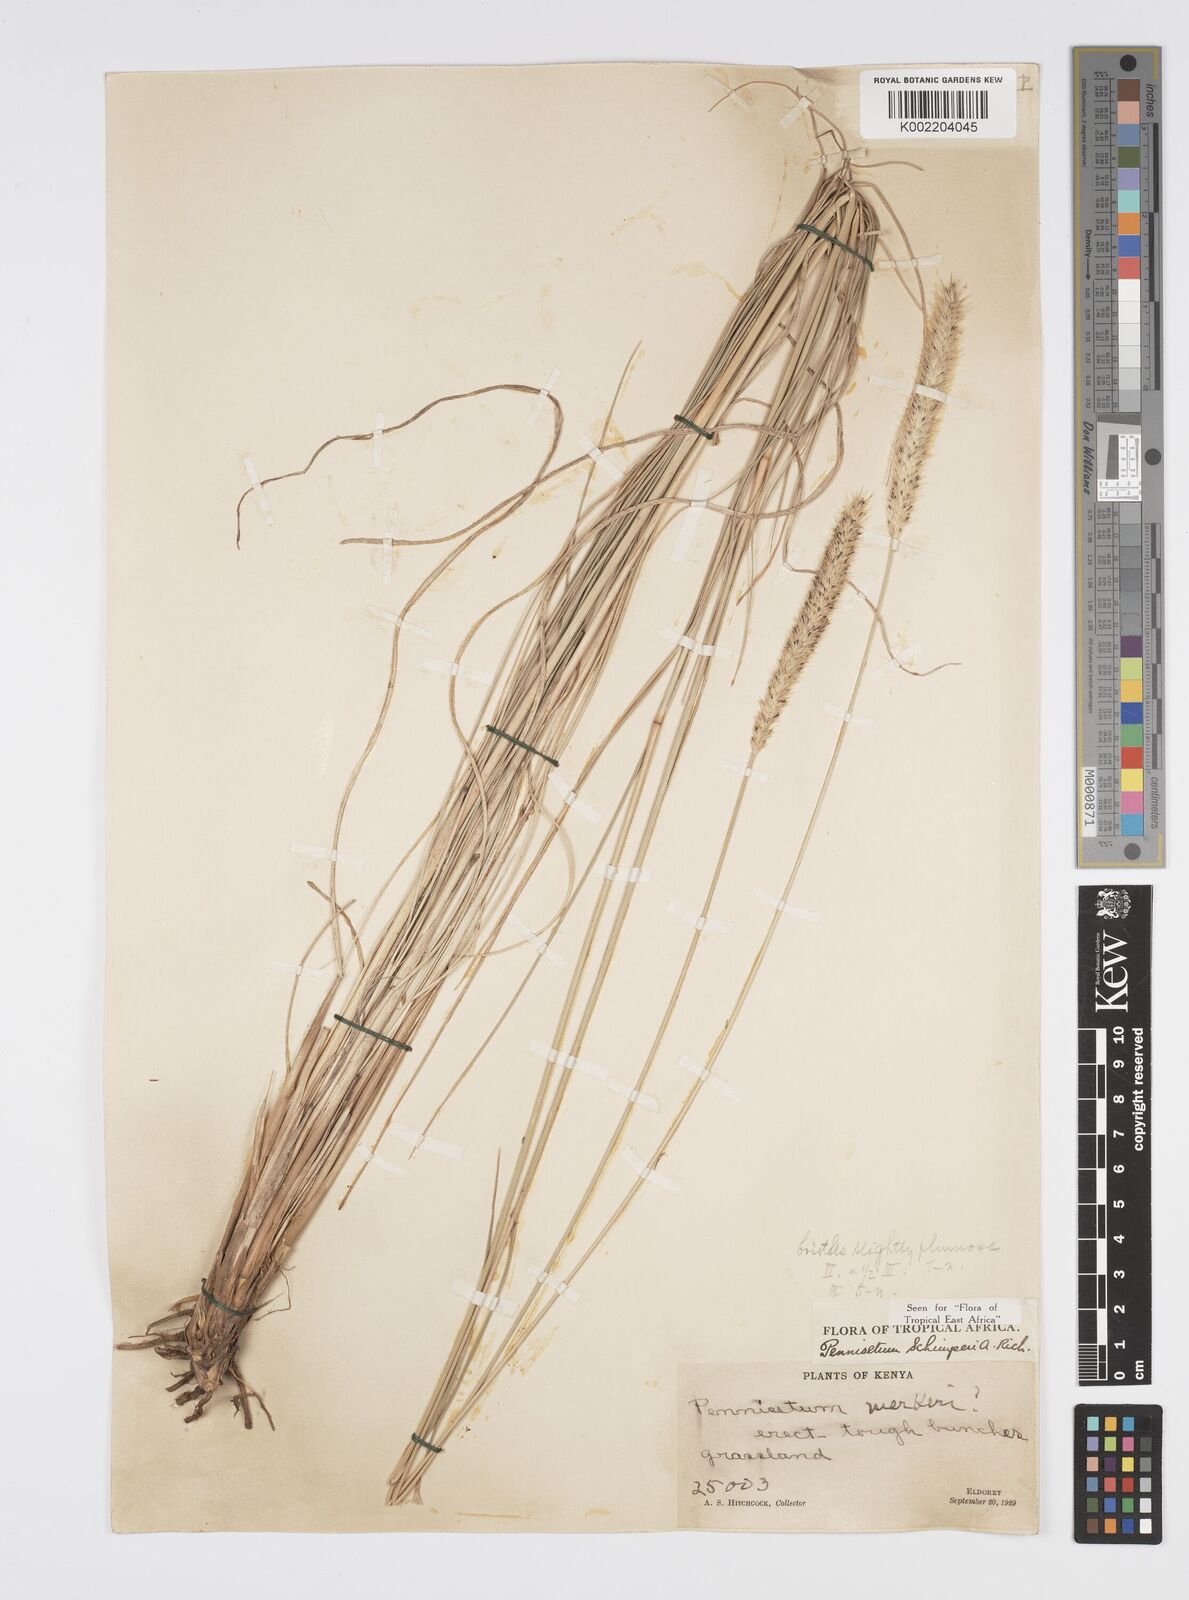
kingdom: Plantae
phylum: Tracheophyta
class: Liliopsida
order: Poales
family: Poaceae
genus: Cenchrus
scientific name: Cenchrus sphacelatus
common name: Bulgras
